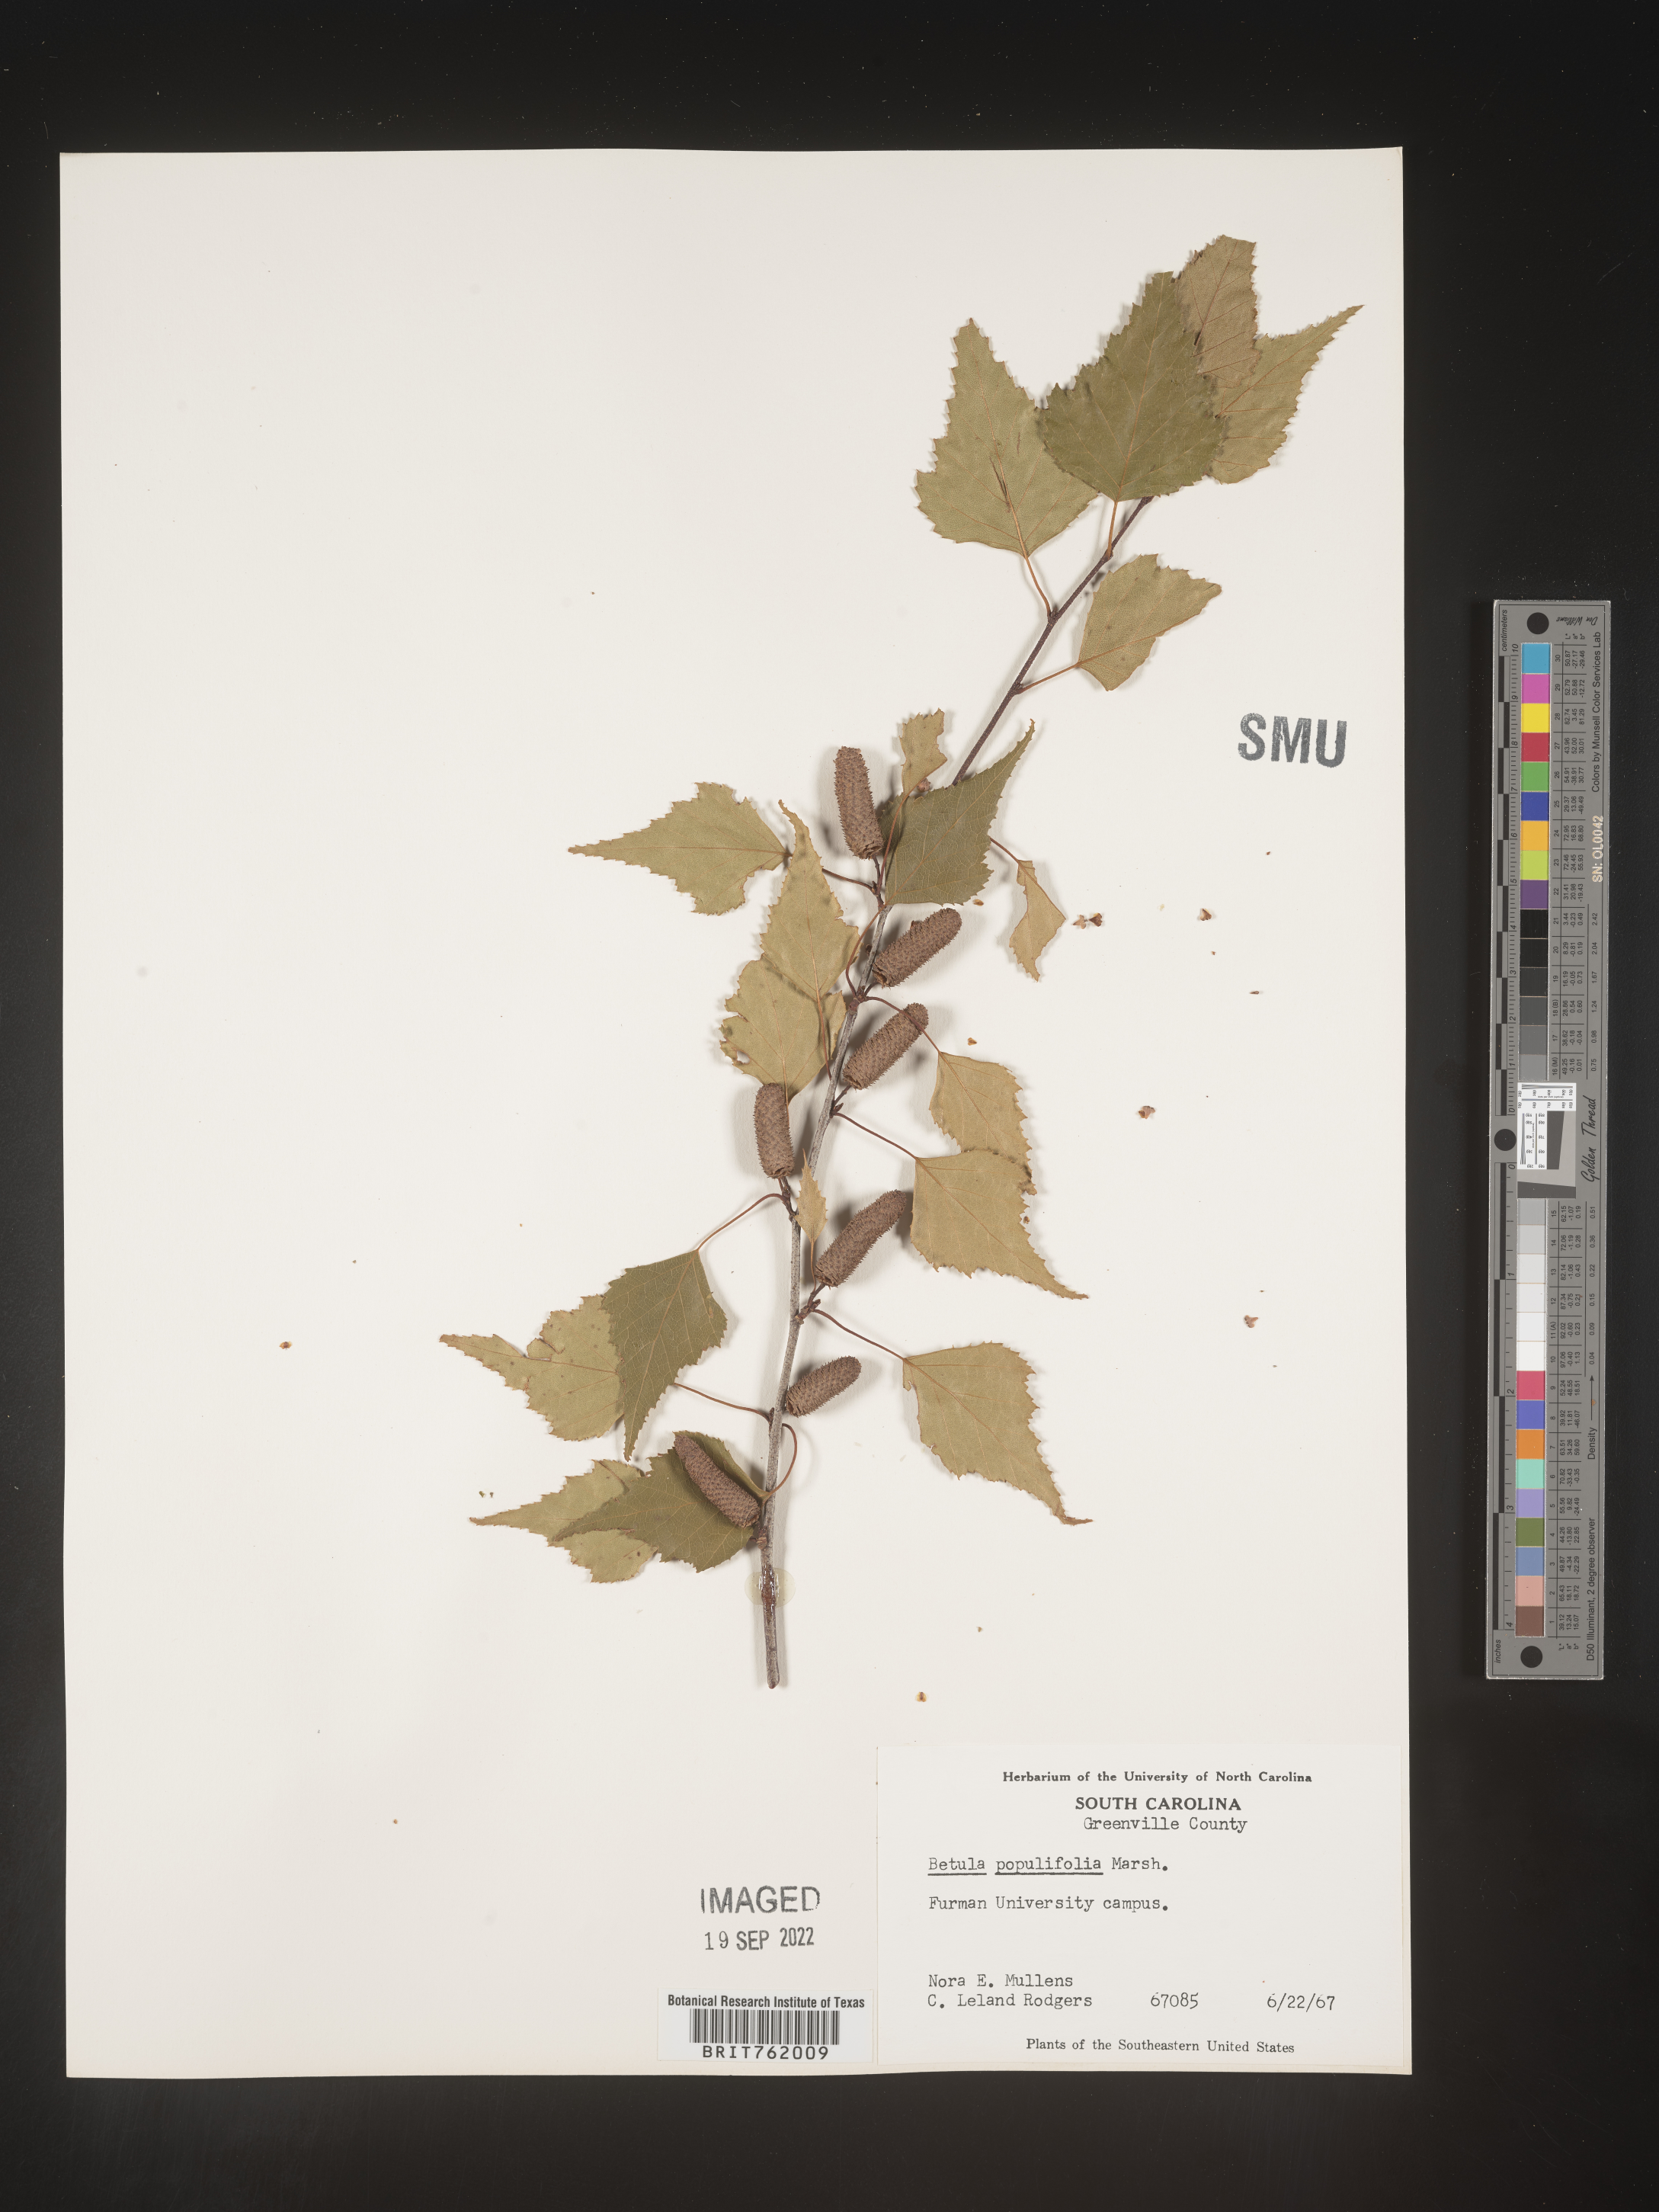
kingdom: Plantae
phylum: Tracheophyta
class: Magnoliopsida
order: Fagales
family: Betulaceae
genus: Betula
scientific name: Betula populifolia
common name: Fire birch
